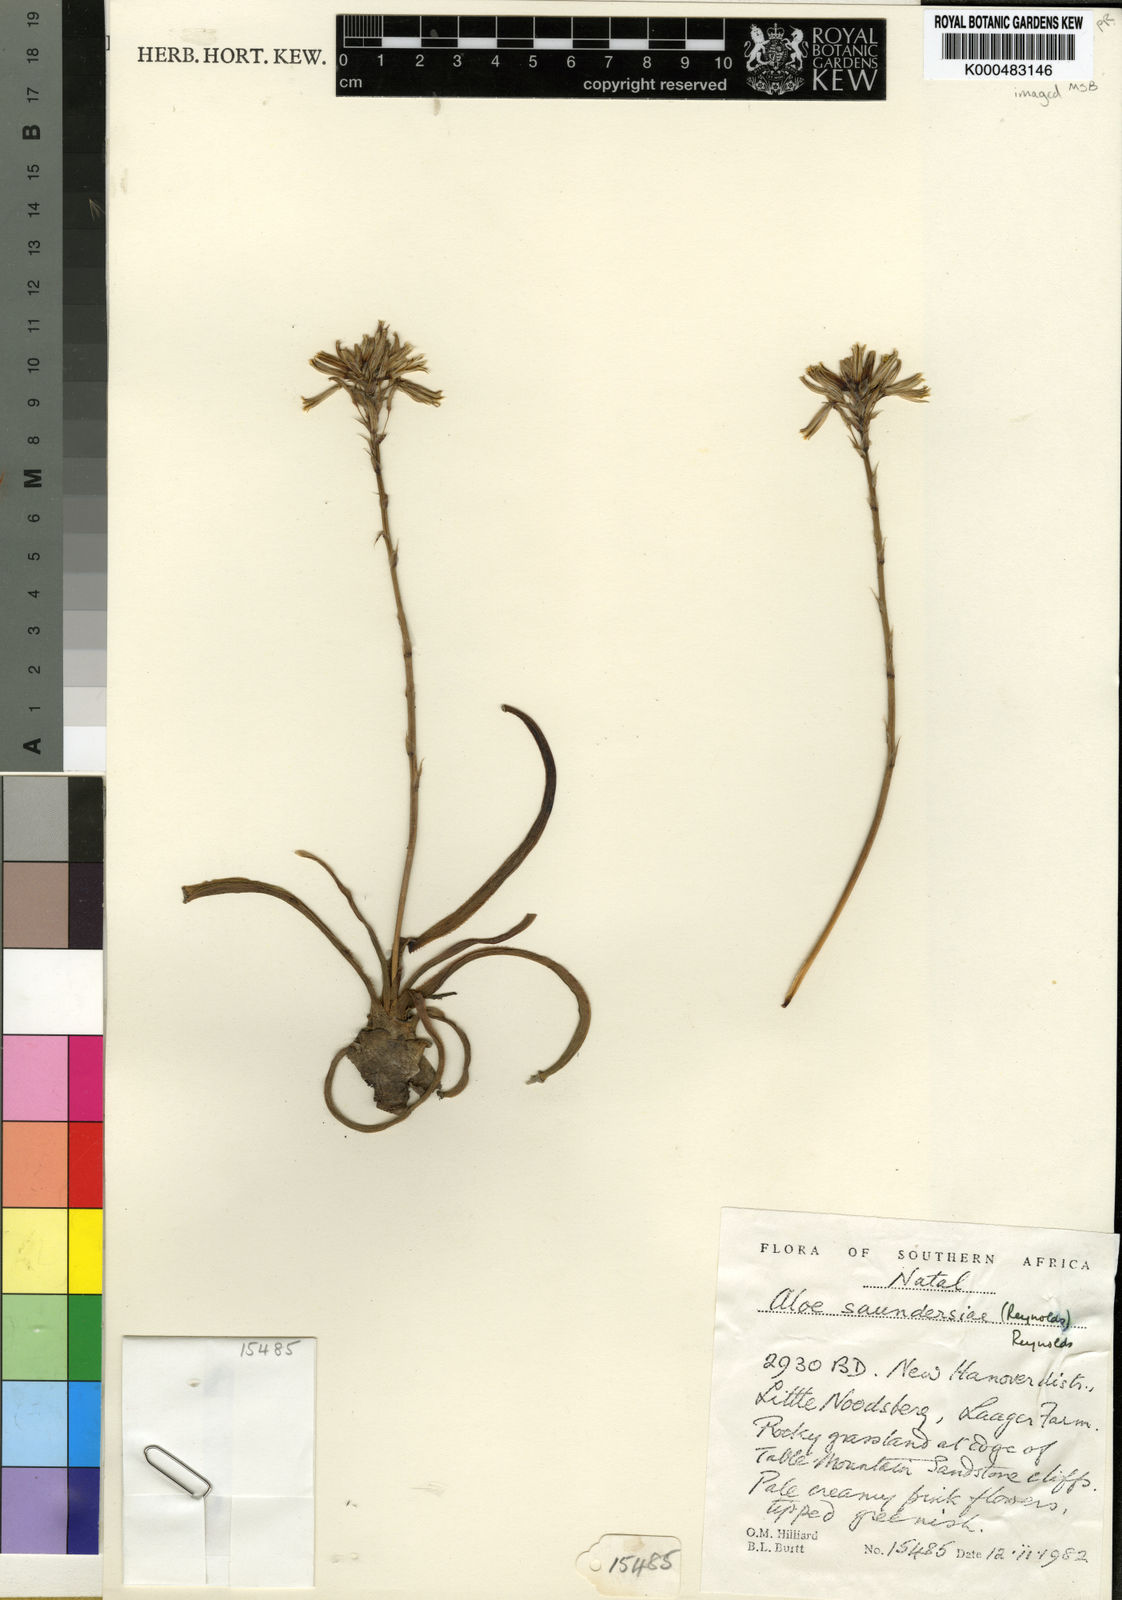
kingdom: Plantae
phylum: Tracheophyta
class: Liliopsida
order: Asparagales
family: Asphodelaceae
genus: Aloe
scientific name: Aloe saundersiae
